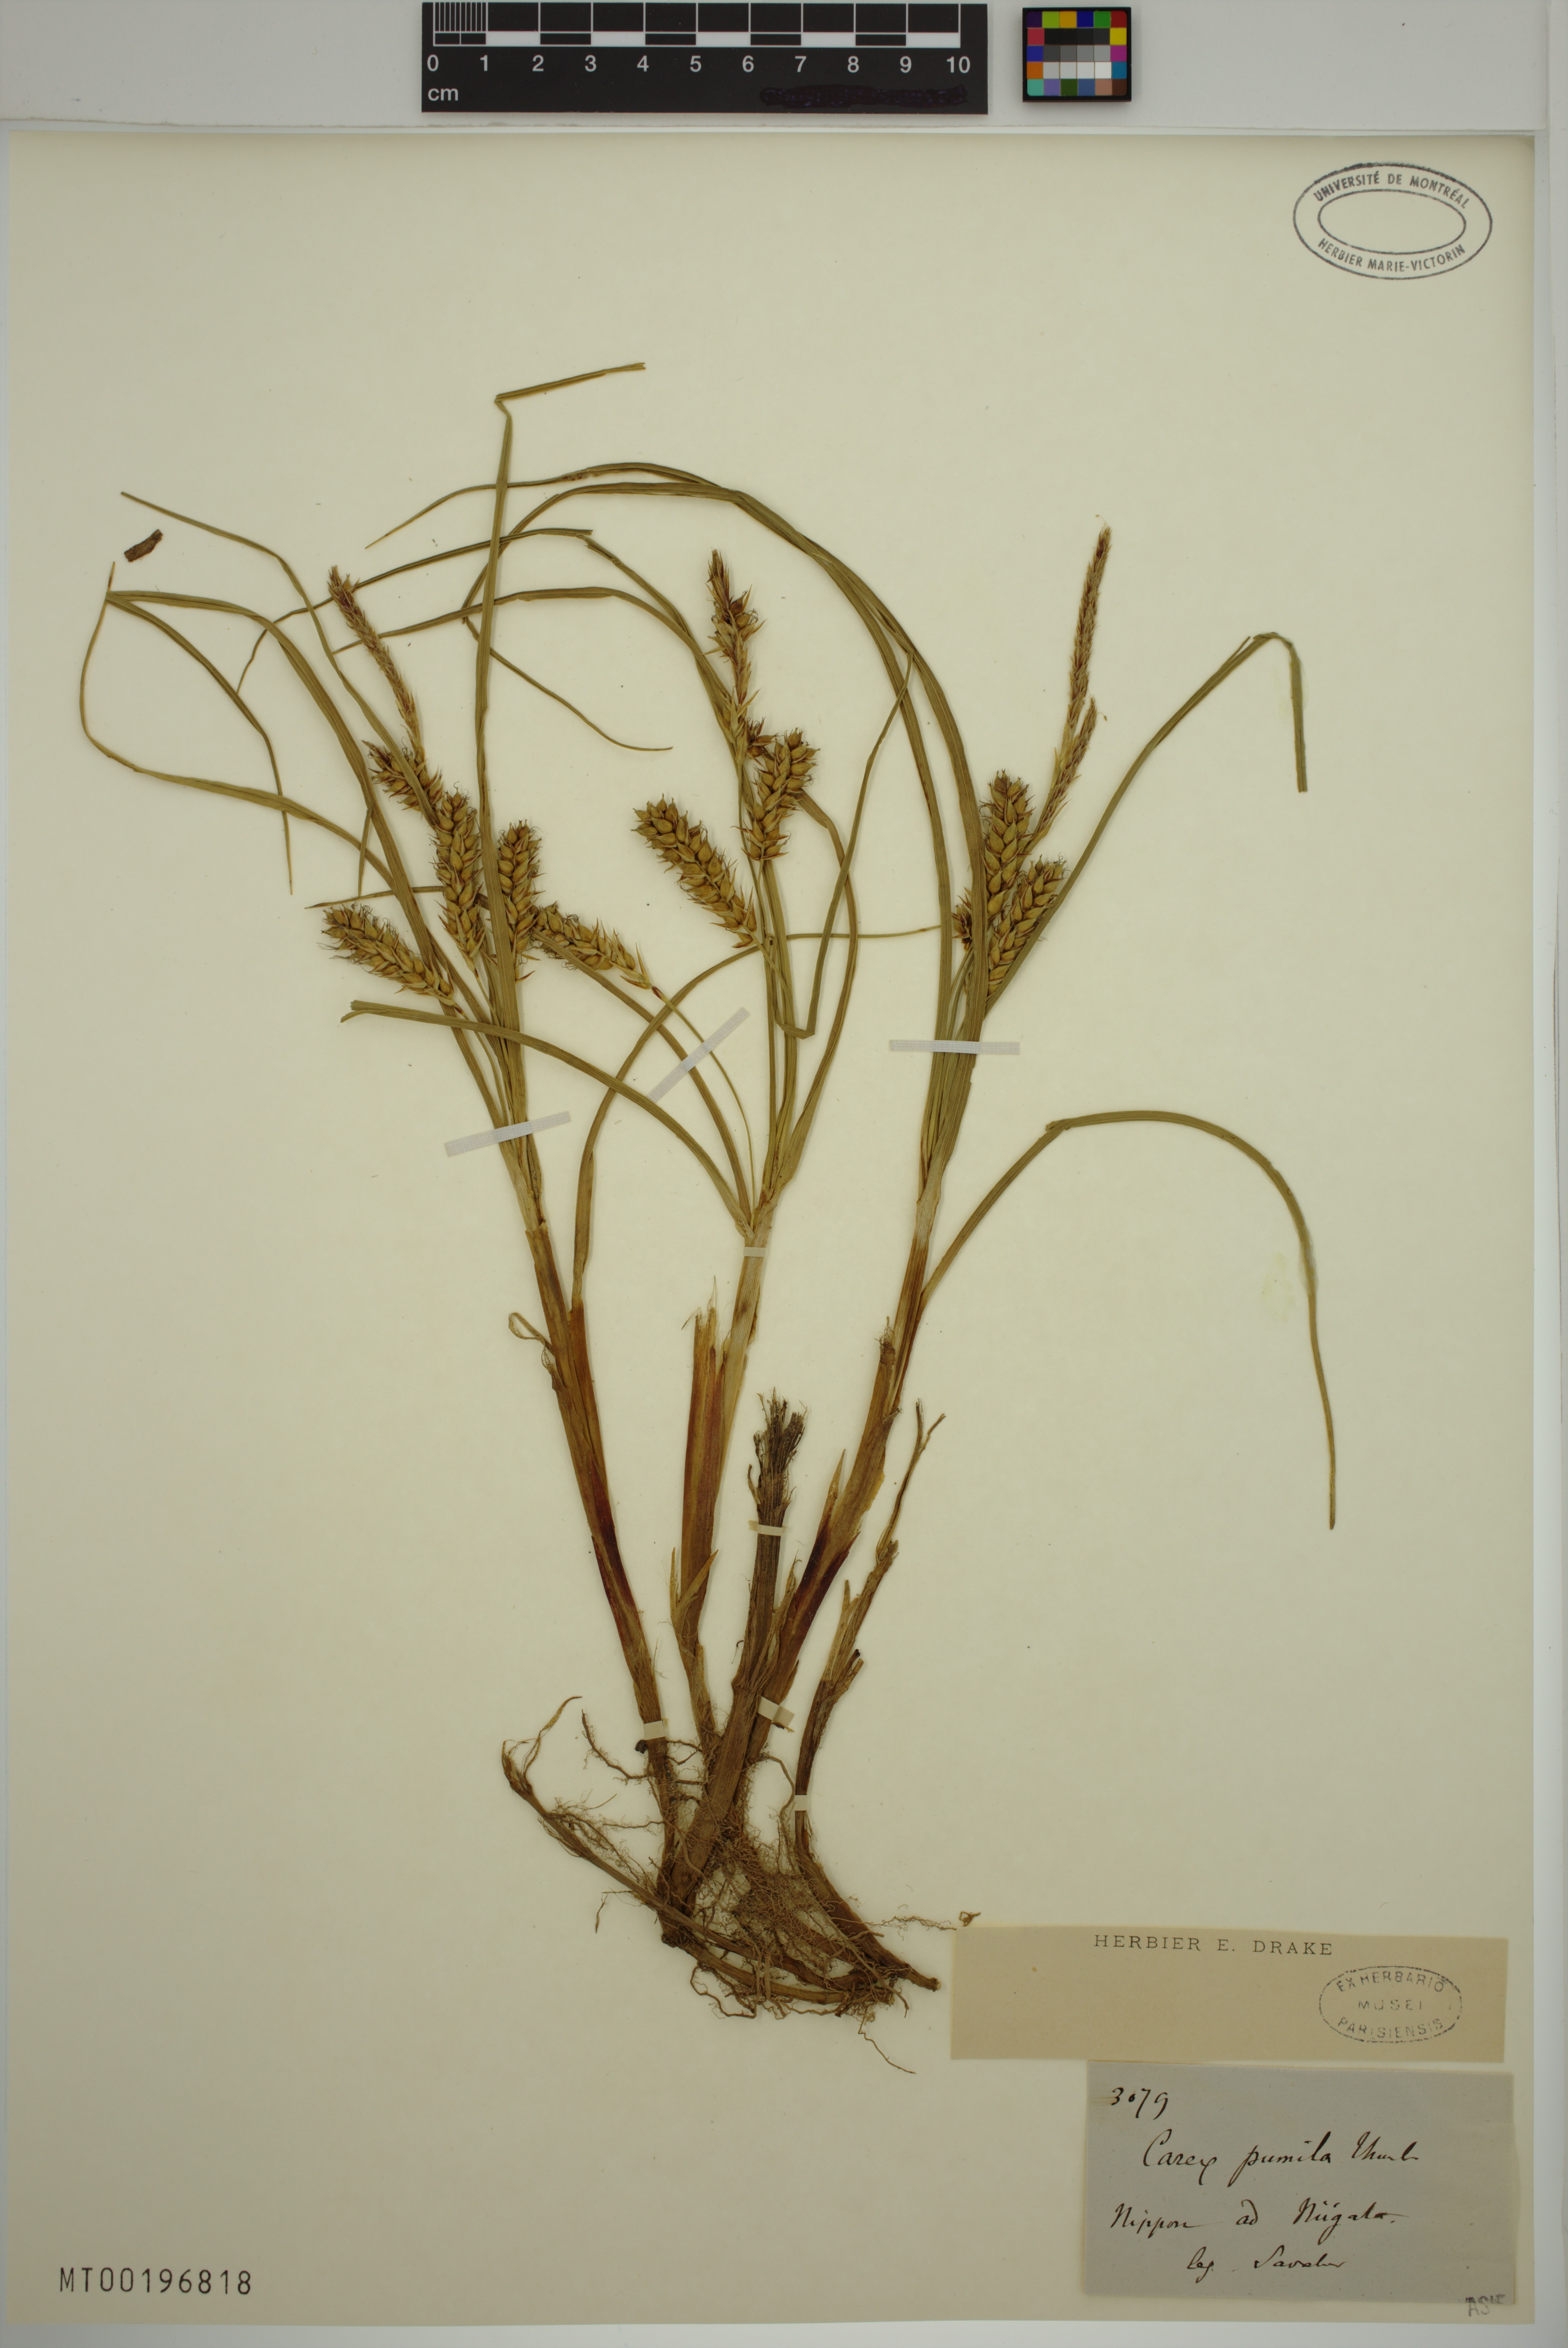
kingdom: Plantae
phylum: Tracheophyta
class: Liliopsida
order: Poales
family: Cyperaceae
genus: Carex
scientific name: Carex pumila
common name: Dwarf sedge
